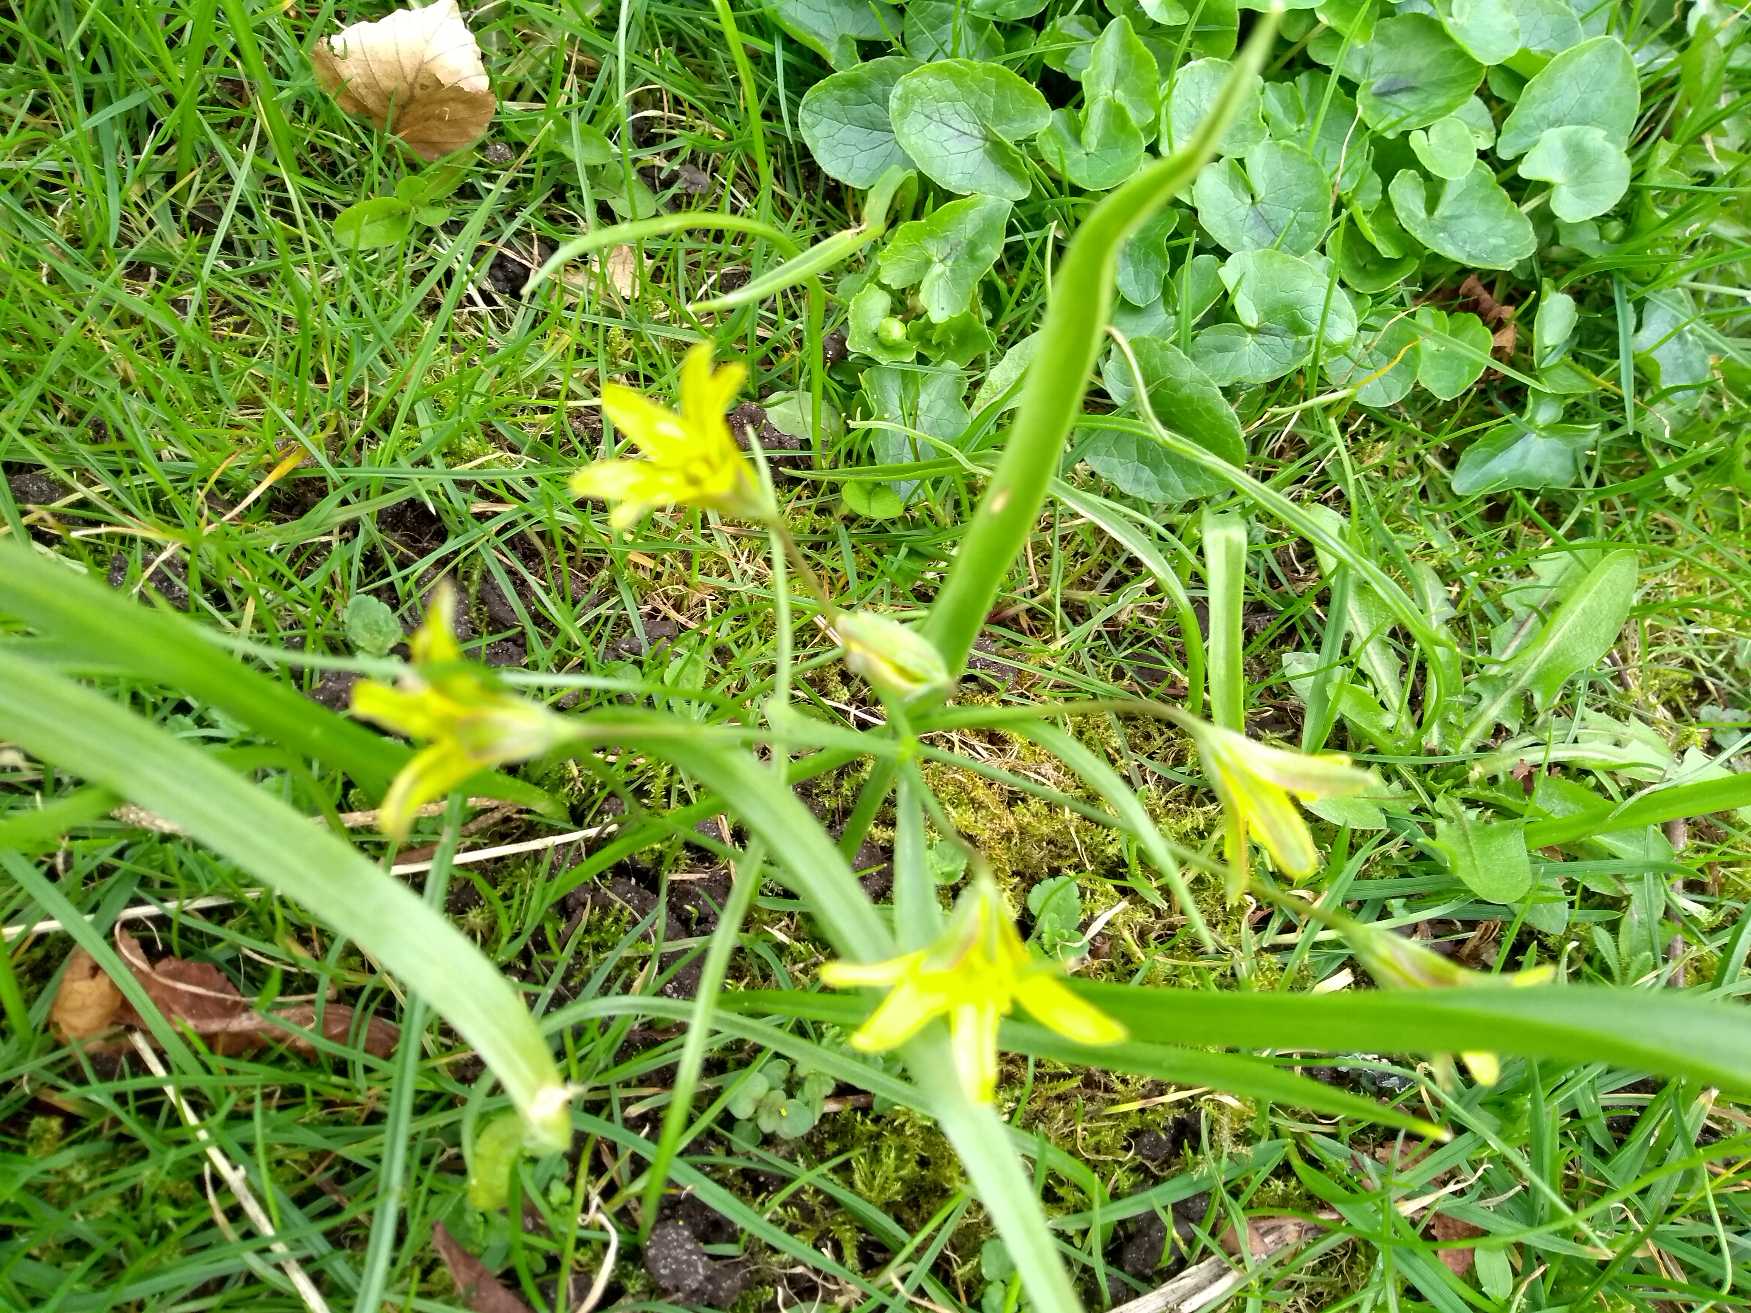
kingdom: Plantae
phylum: Tracheophyta
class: Liliopsida
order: Liliales
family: Liliaceae
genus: Gagea
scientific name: Gagea lutea
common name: Almindelig guldstjerne
